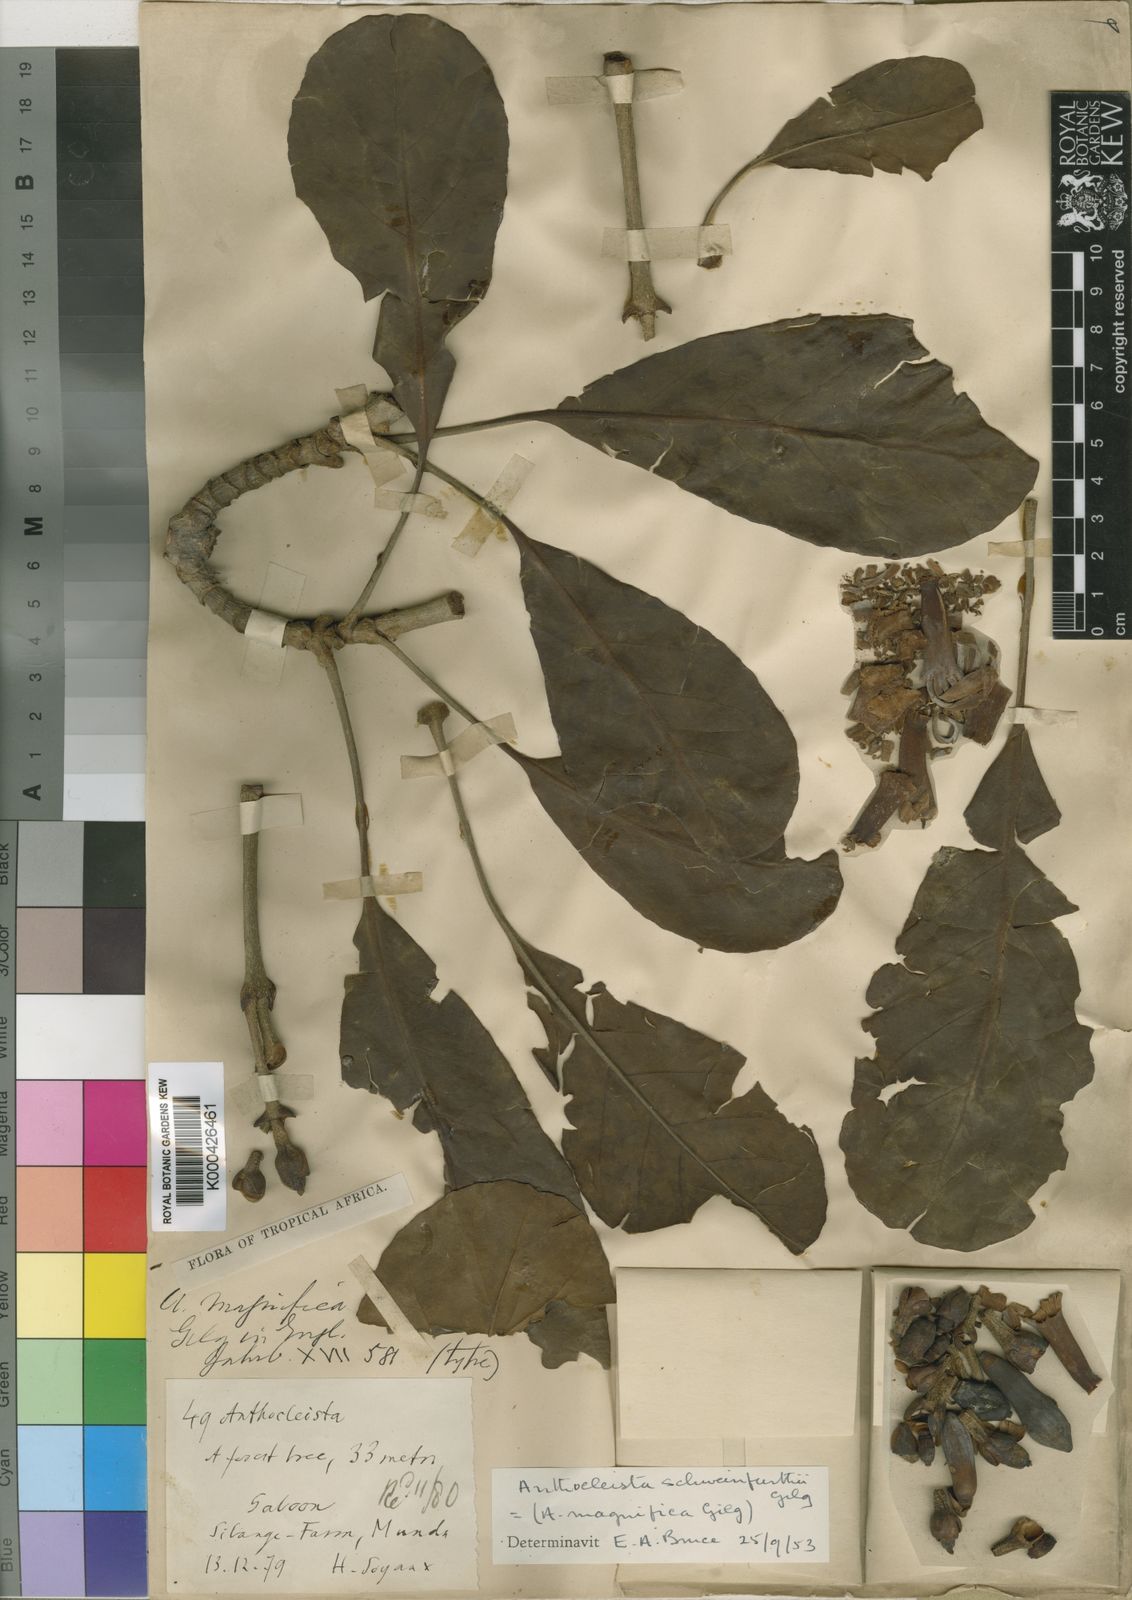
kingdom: Plantae
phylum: Tracheophyta
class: Magnoliopsida
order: Gentianales
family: Gentianaceae
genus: Anthocleista
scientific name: Anthocleista schweinfurthii
